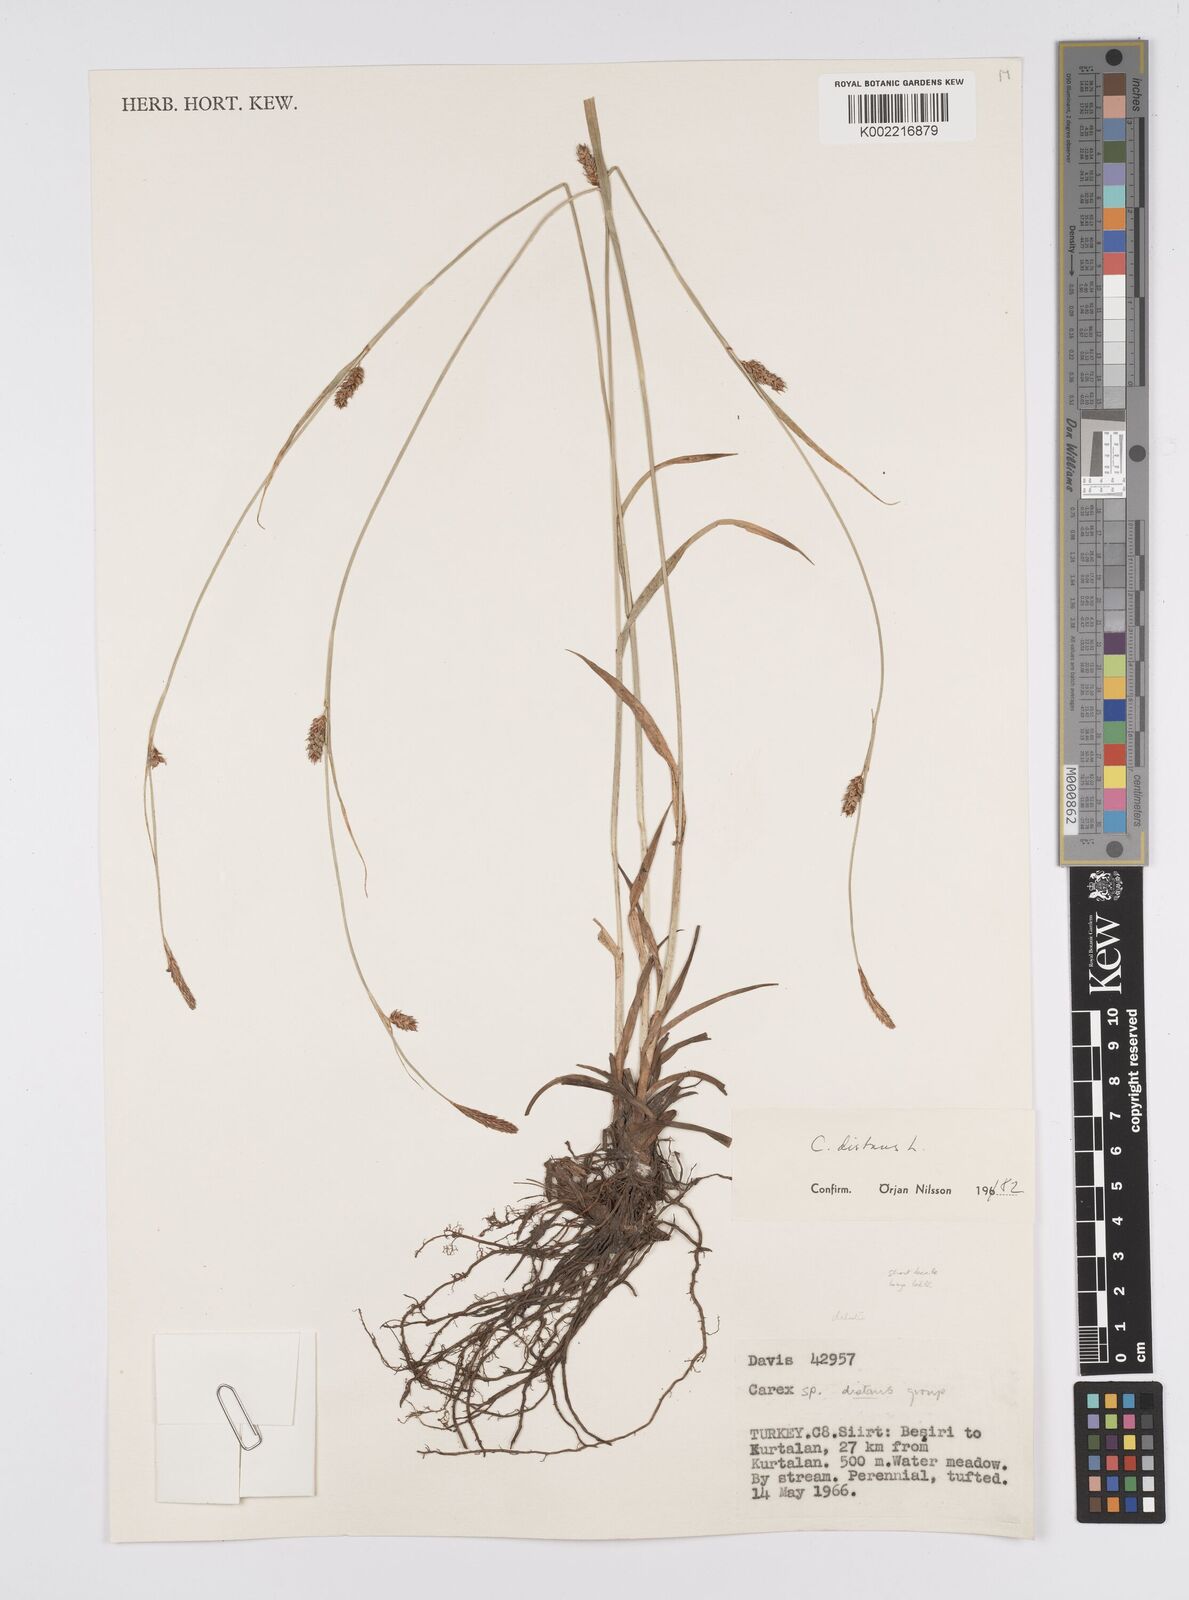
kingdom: Plantae
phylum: Tracheophyta
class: Liliopsida
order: Poales
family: Cyperaceae
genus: Carex
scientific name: Carex distans
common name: Distant sedge
